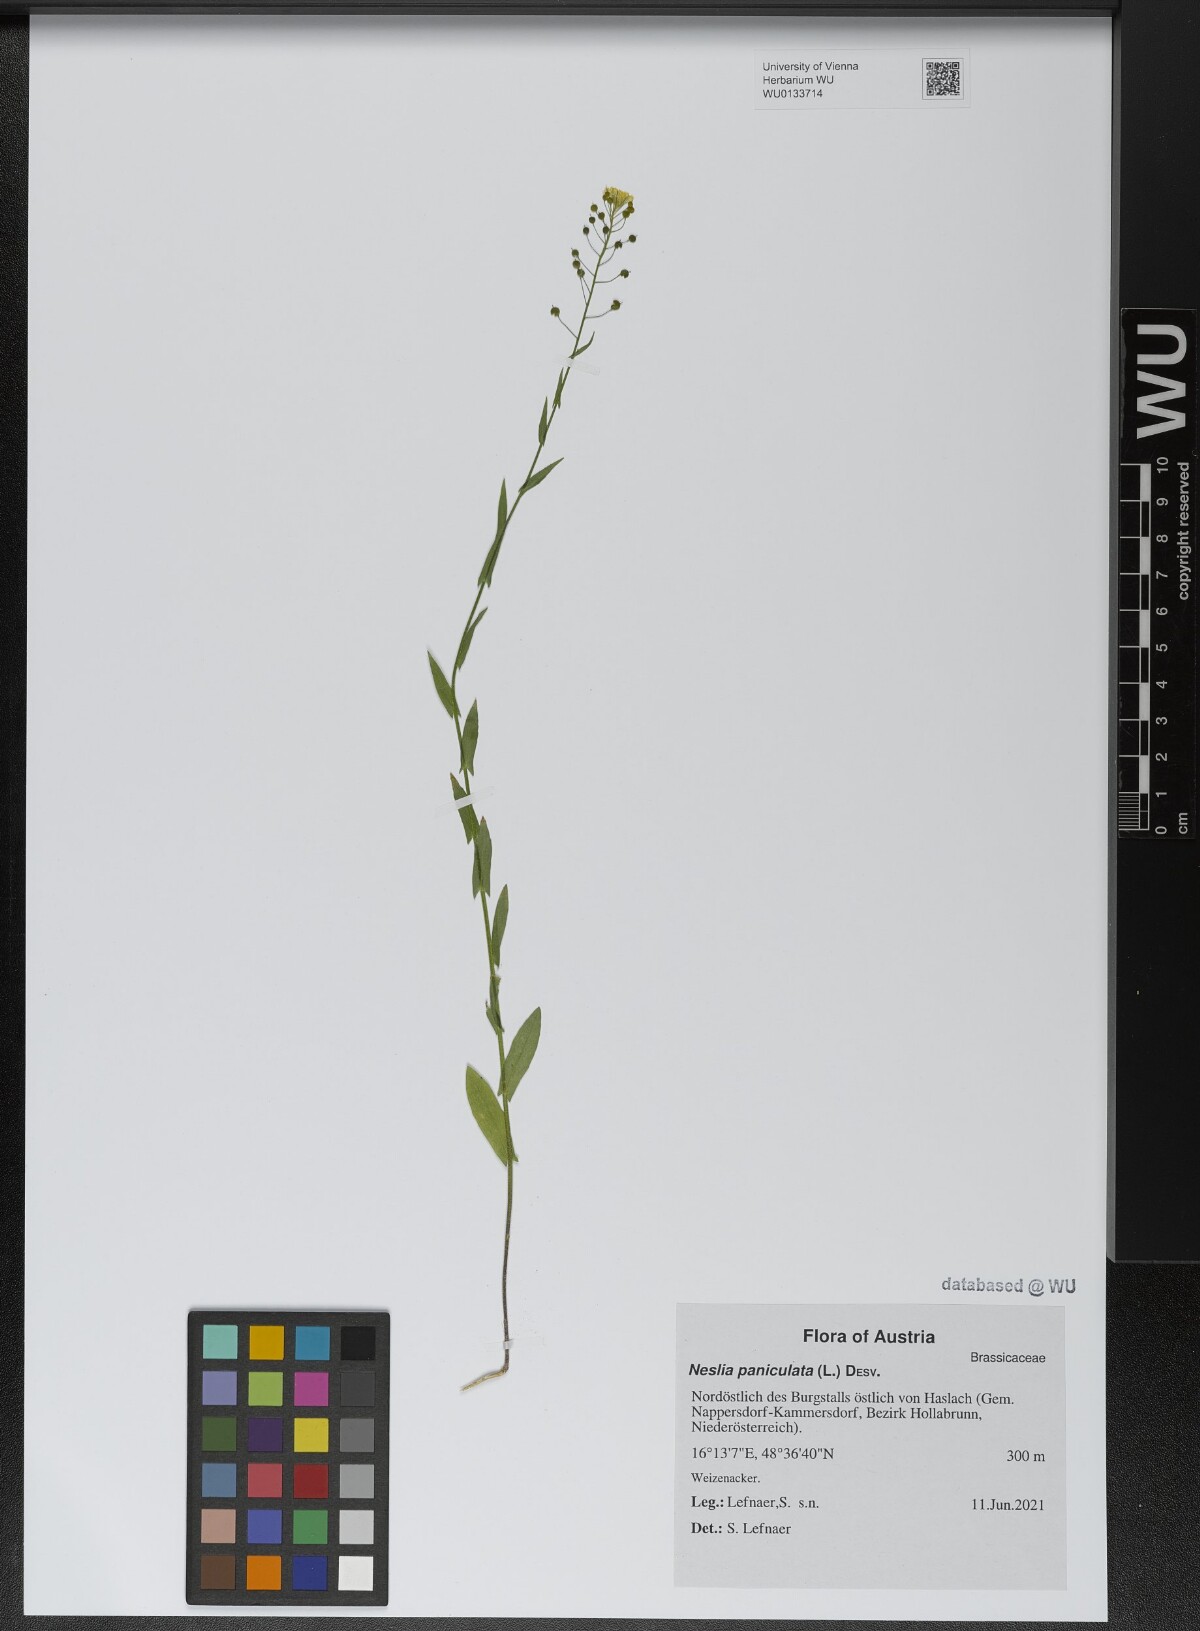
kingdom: Plantae
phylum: Tracheophyta
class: Magnoliopsida
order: Brassicales
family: Brassicaceae
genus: Neslia
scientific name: Neslia paniculata
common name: Ball mustard
